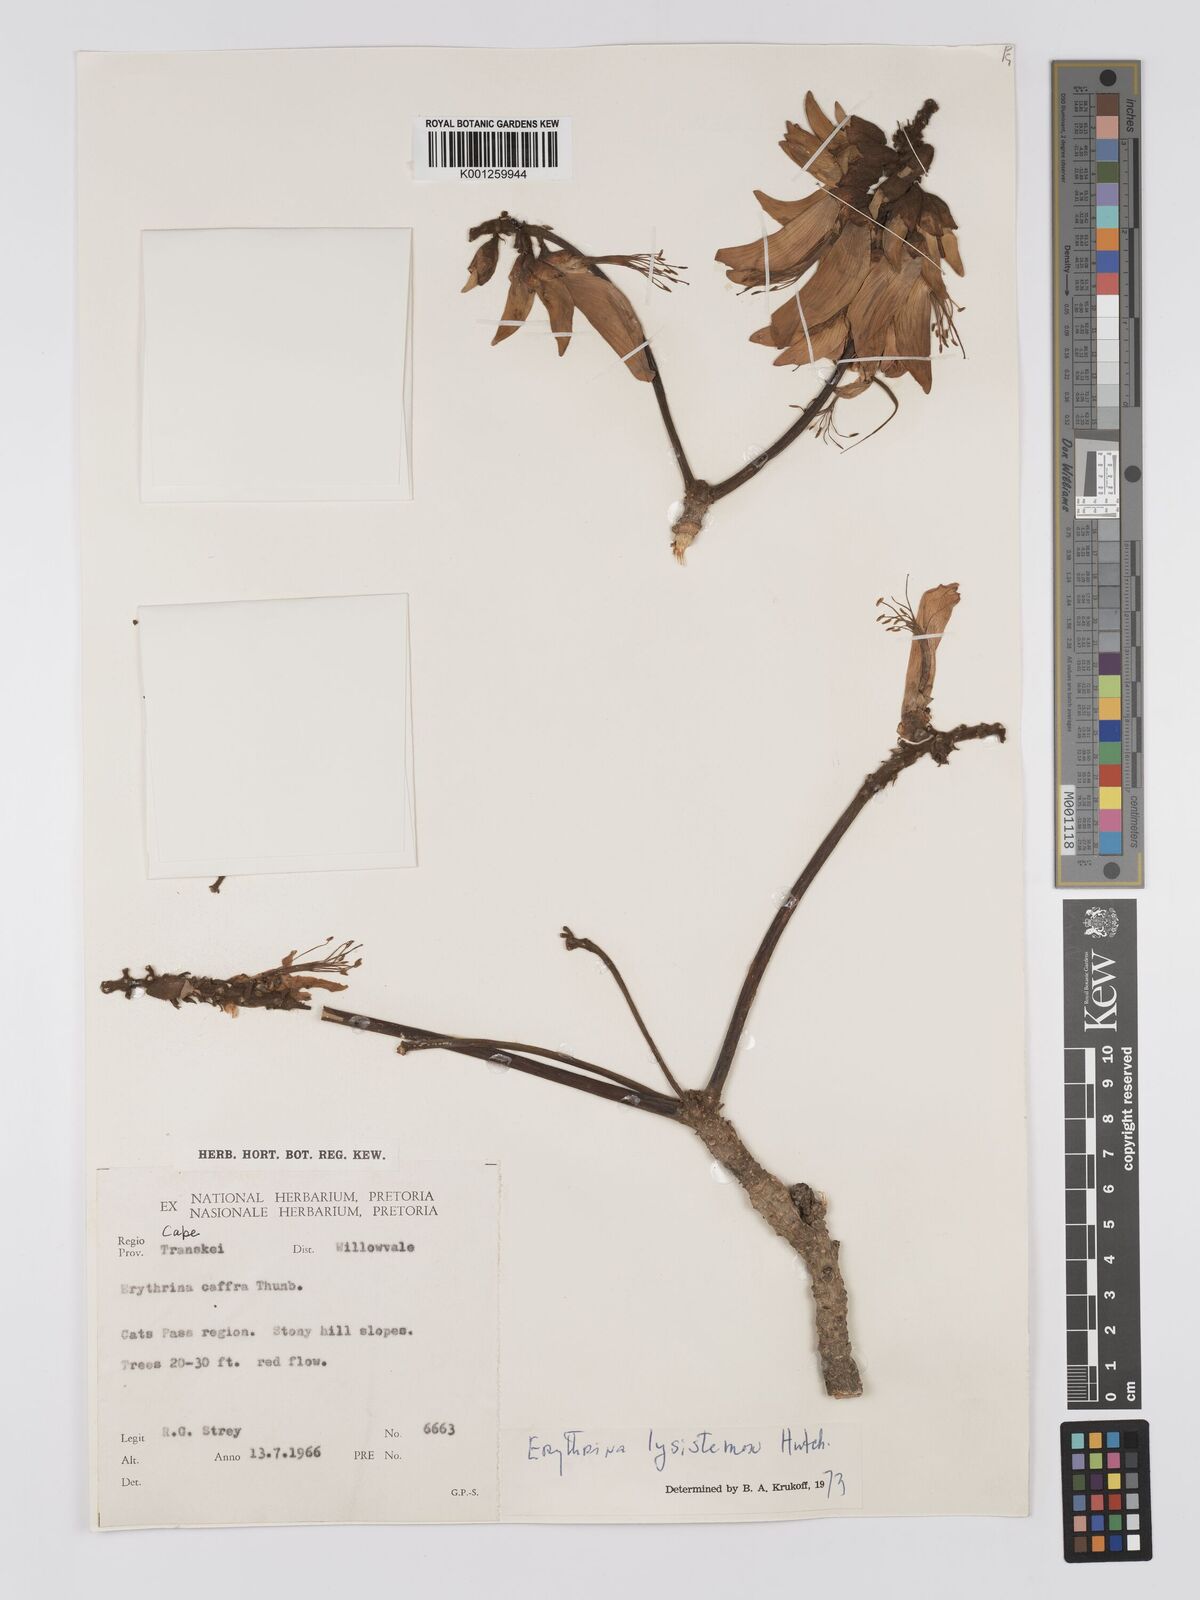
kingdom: Plantae
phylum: Tracheophyta
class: Magnoliopsida
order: Fabales
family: Fabaceae
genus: Erythrina
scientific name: Erythrina lysistemon
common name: Common coral tree
